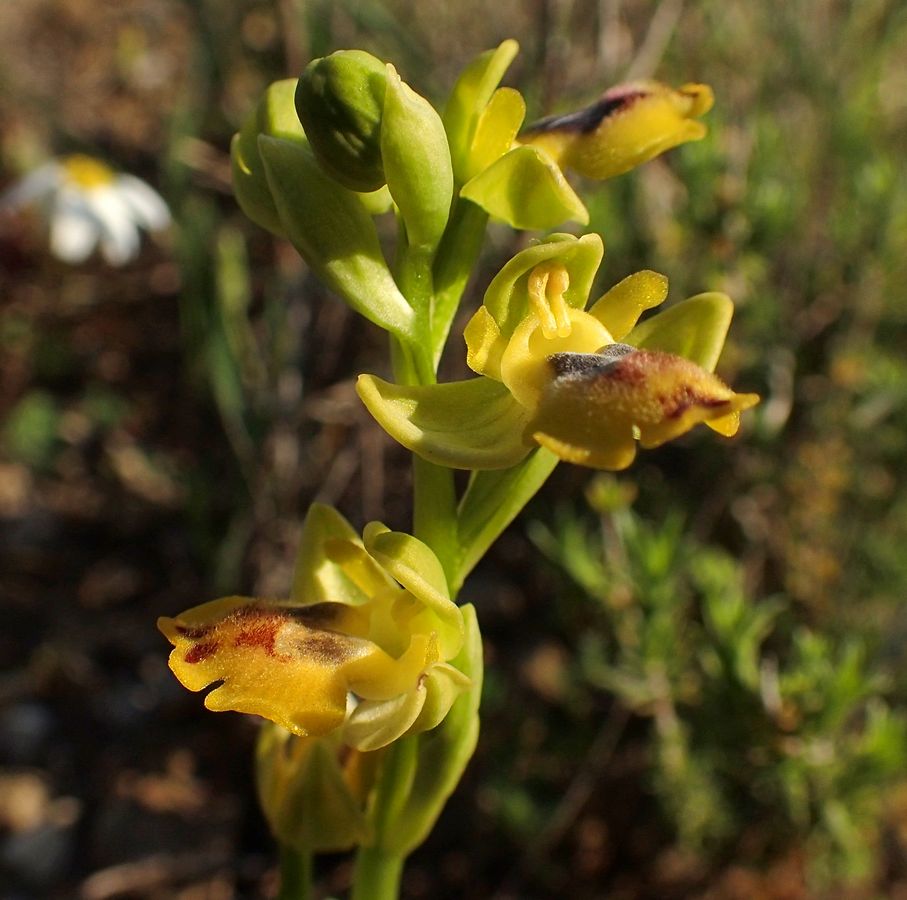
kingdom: Plantae
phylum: Tracheophyta
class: Liliopsida
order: Asparagales
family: Orchidaceae
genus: Ophrys
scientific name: Ophrys lutea
